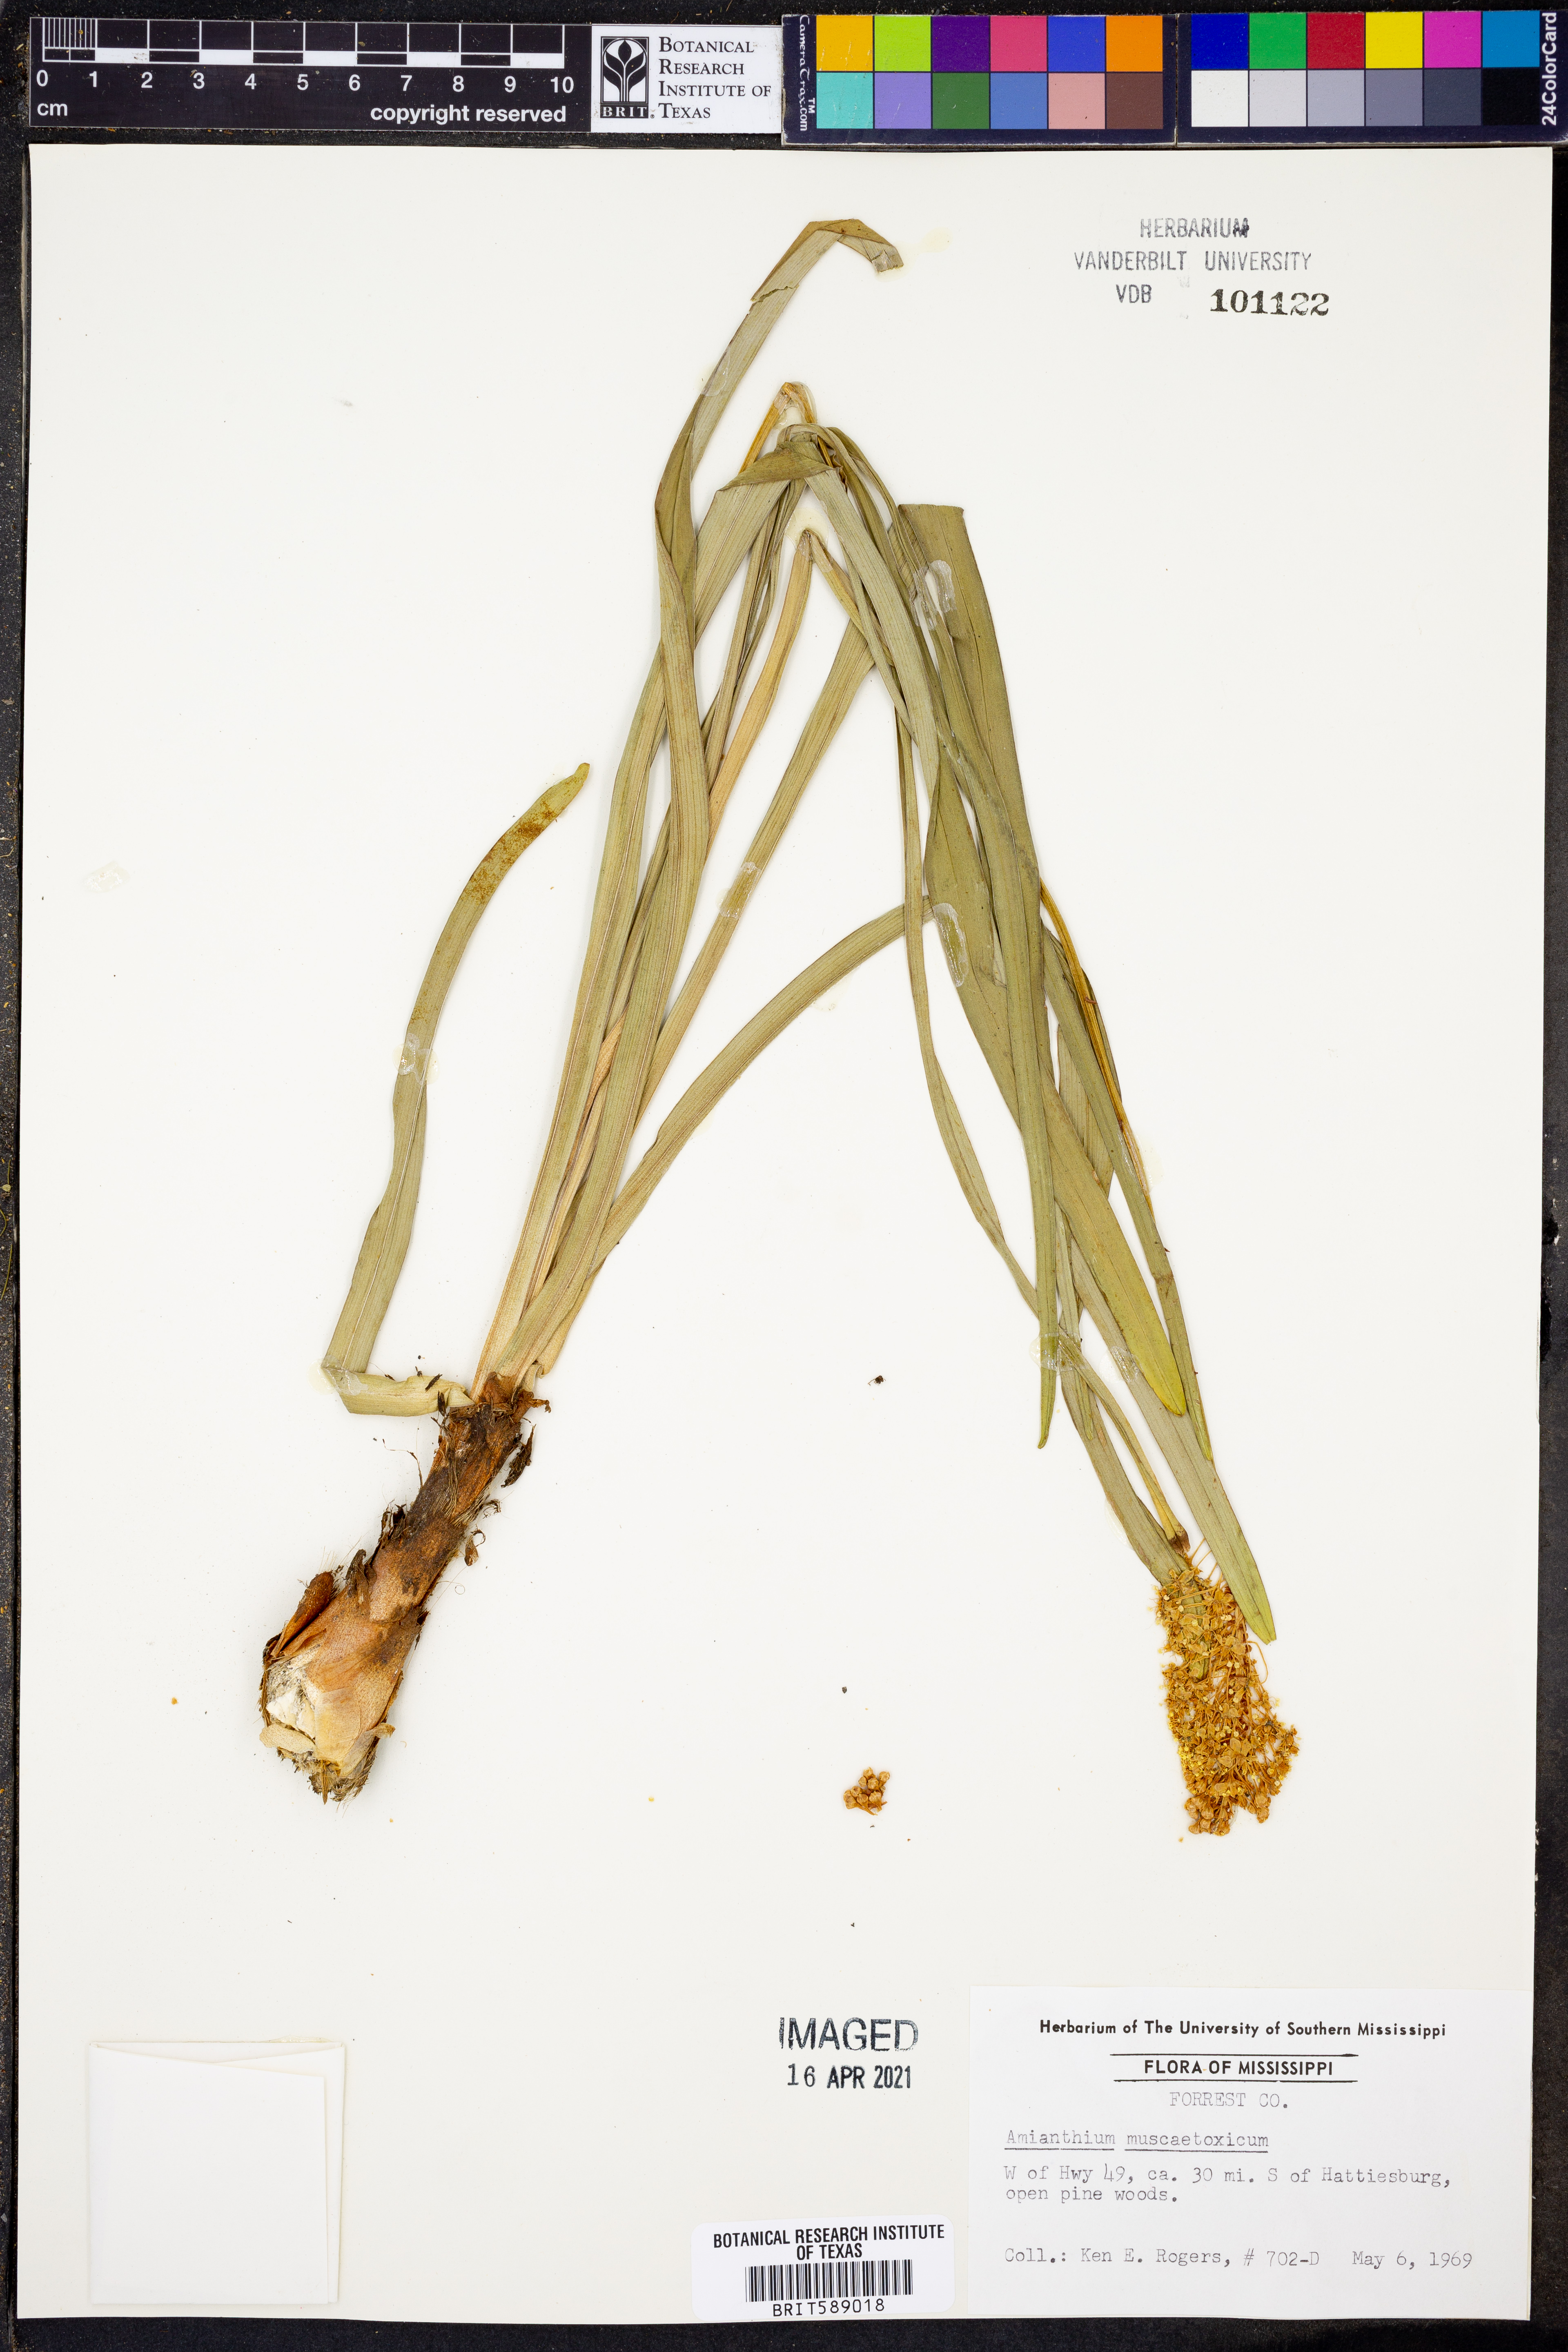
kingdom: Plantae
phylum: Tracheophyta
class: Liliopsida
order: Liliales
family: Melanthiaceae
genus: Amianthium
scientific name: Amianthium muscitoxicum
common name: Fly-poison
